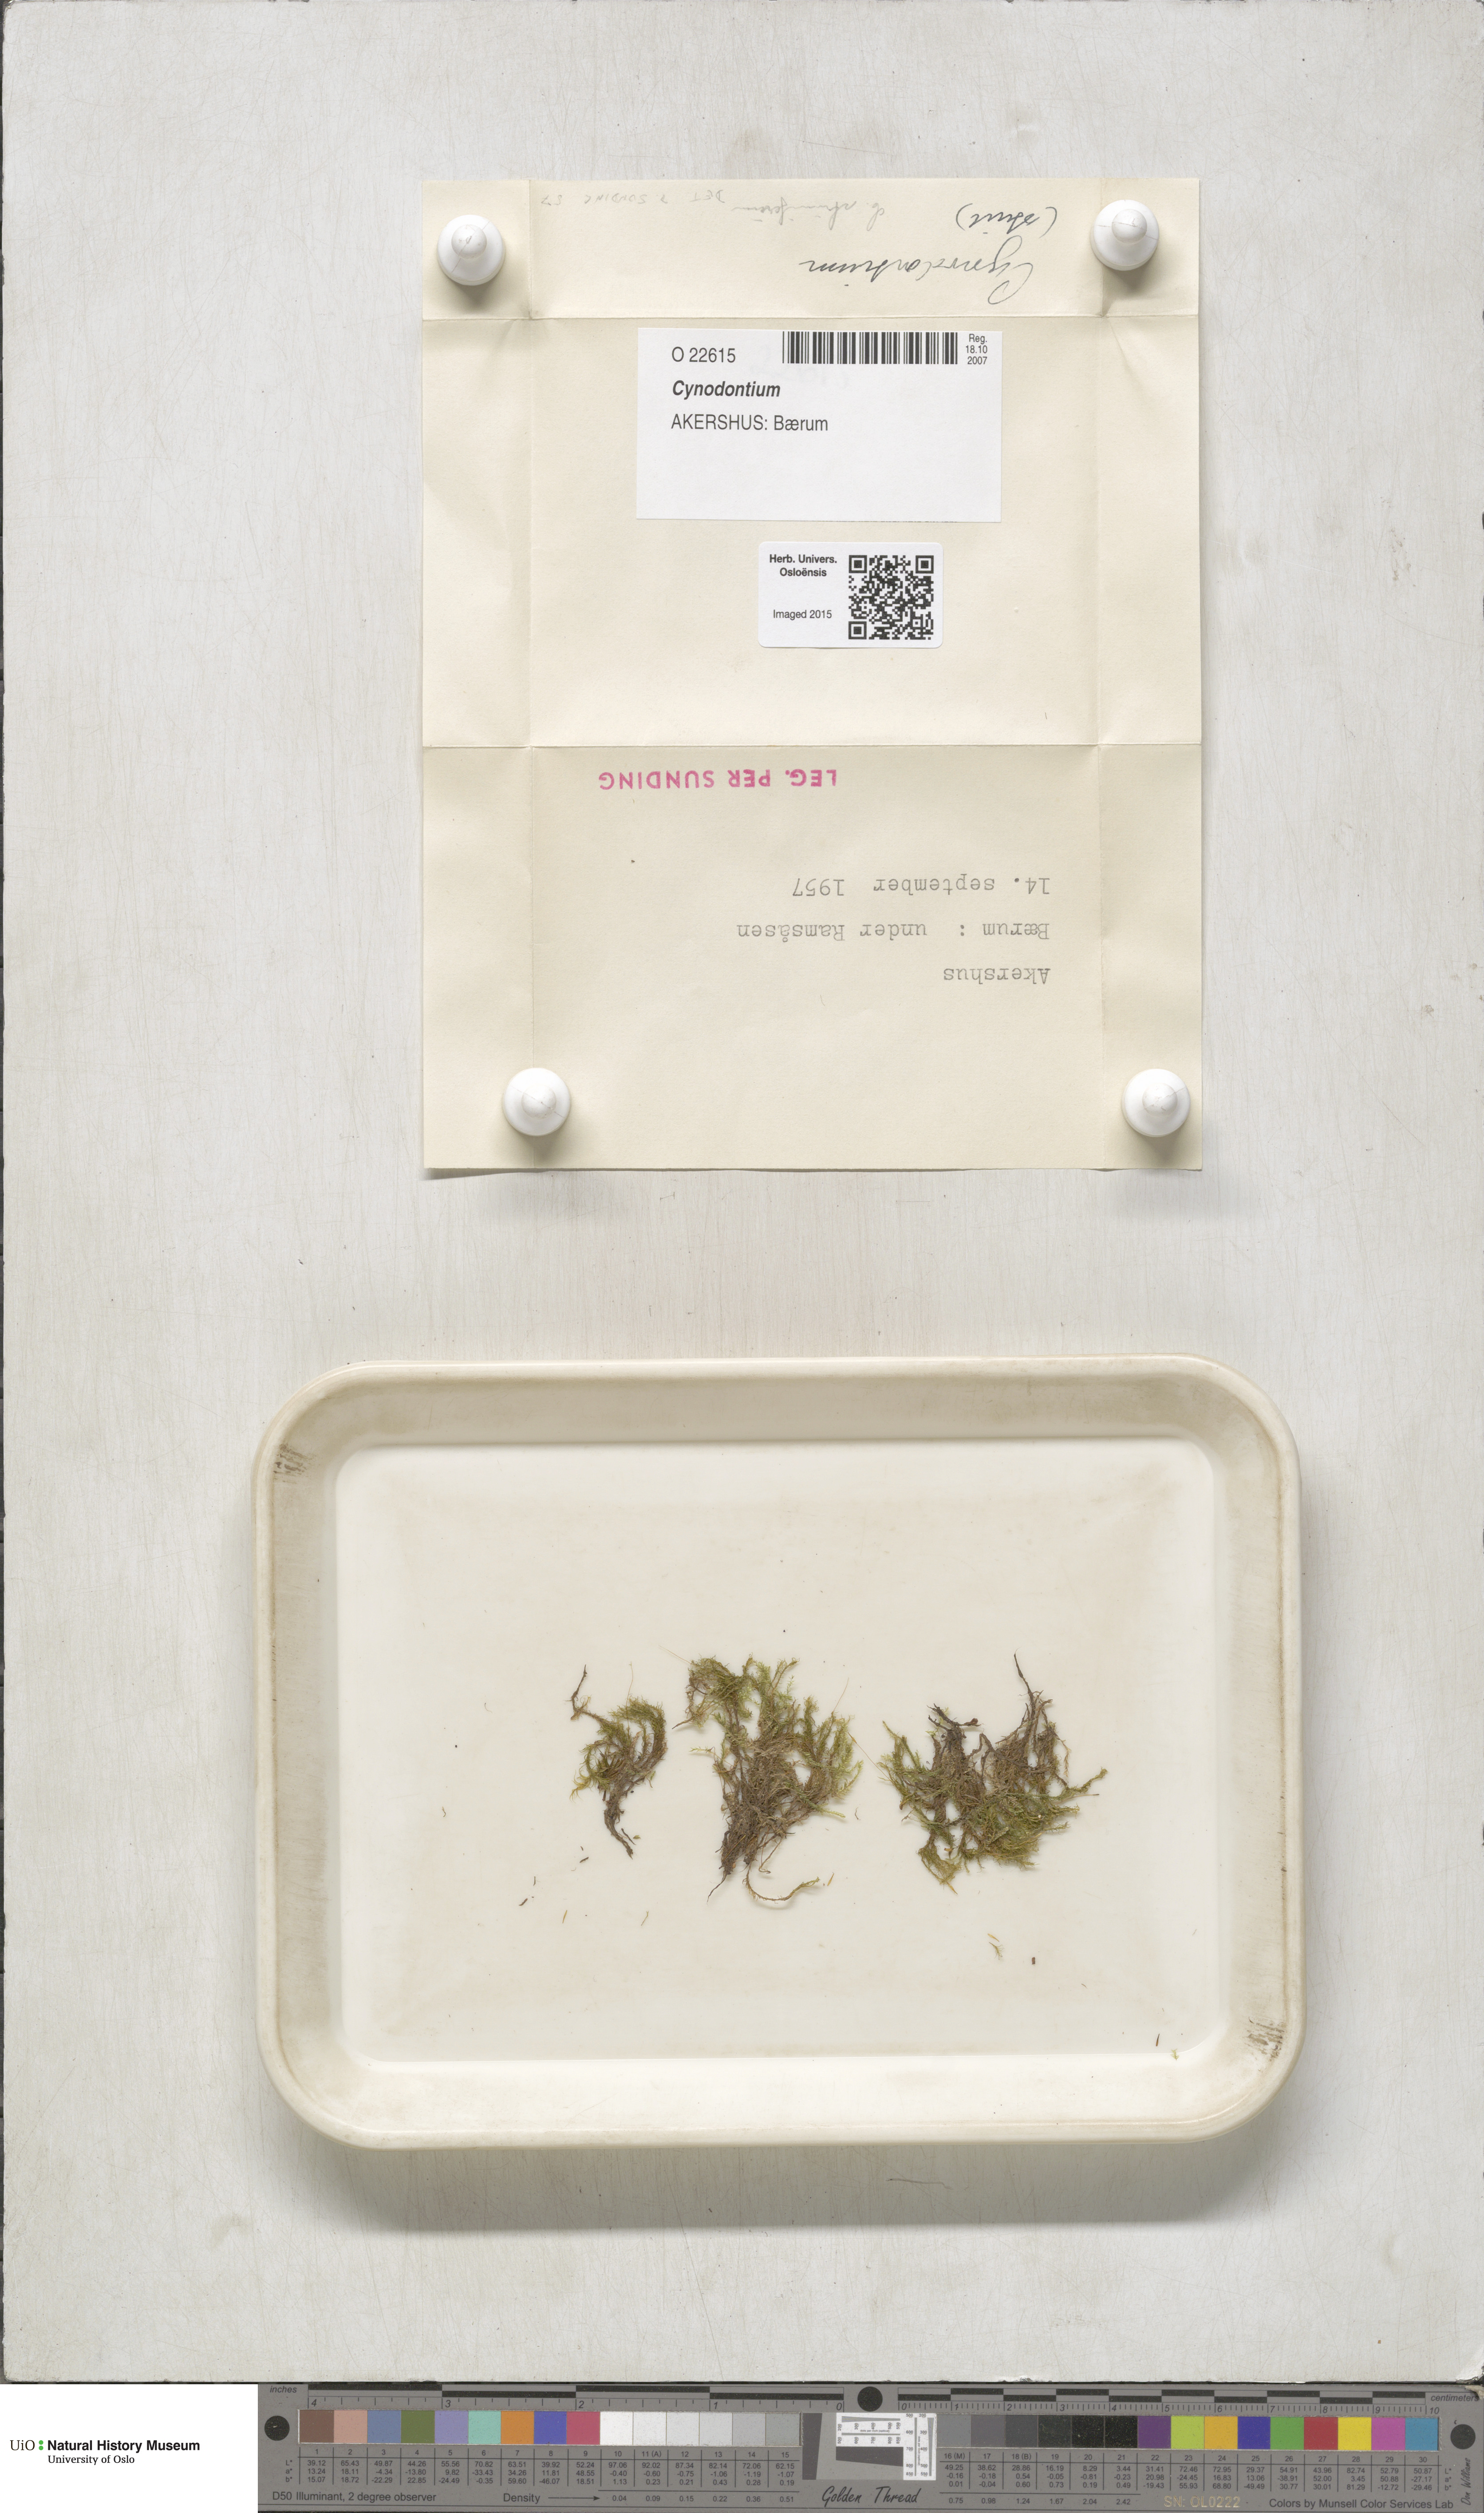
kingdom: Plantae
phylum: Bryophyta
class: Bryopsida
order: Dicranales
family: Rhabdoweisiaceae
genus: Cynodontium
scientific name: Cynodontium
